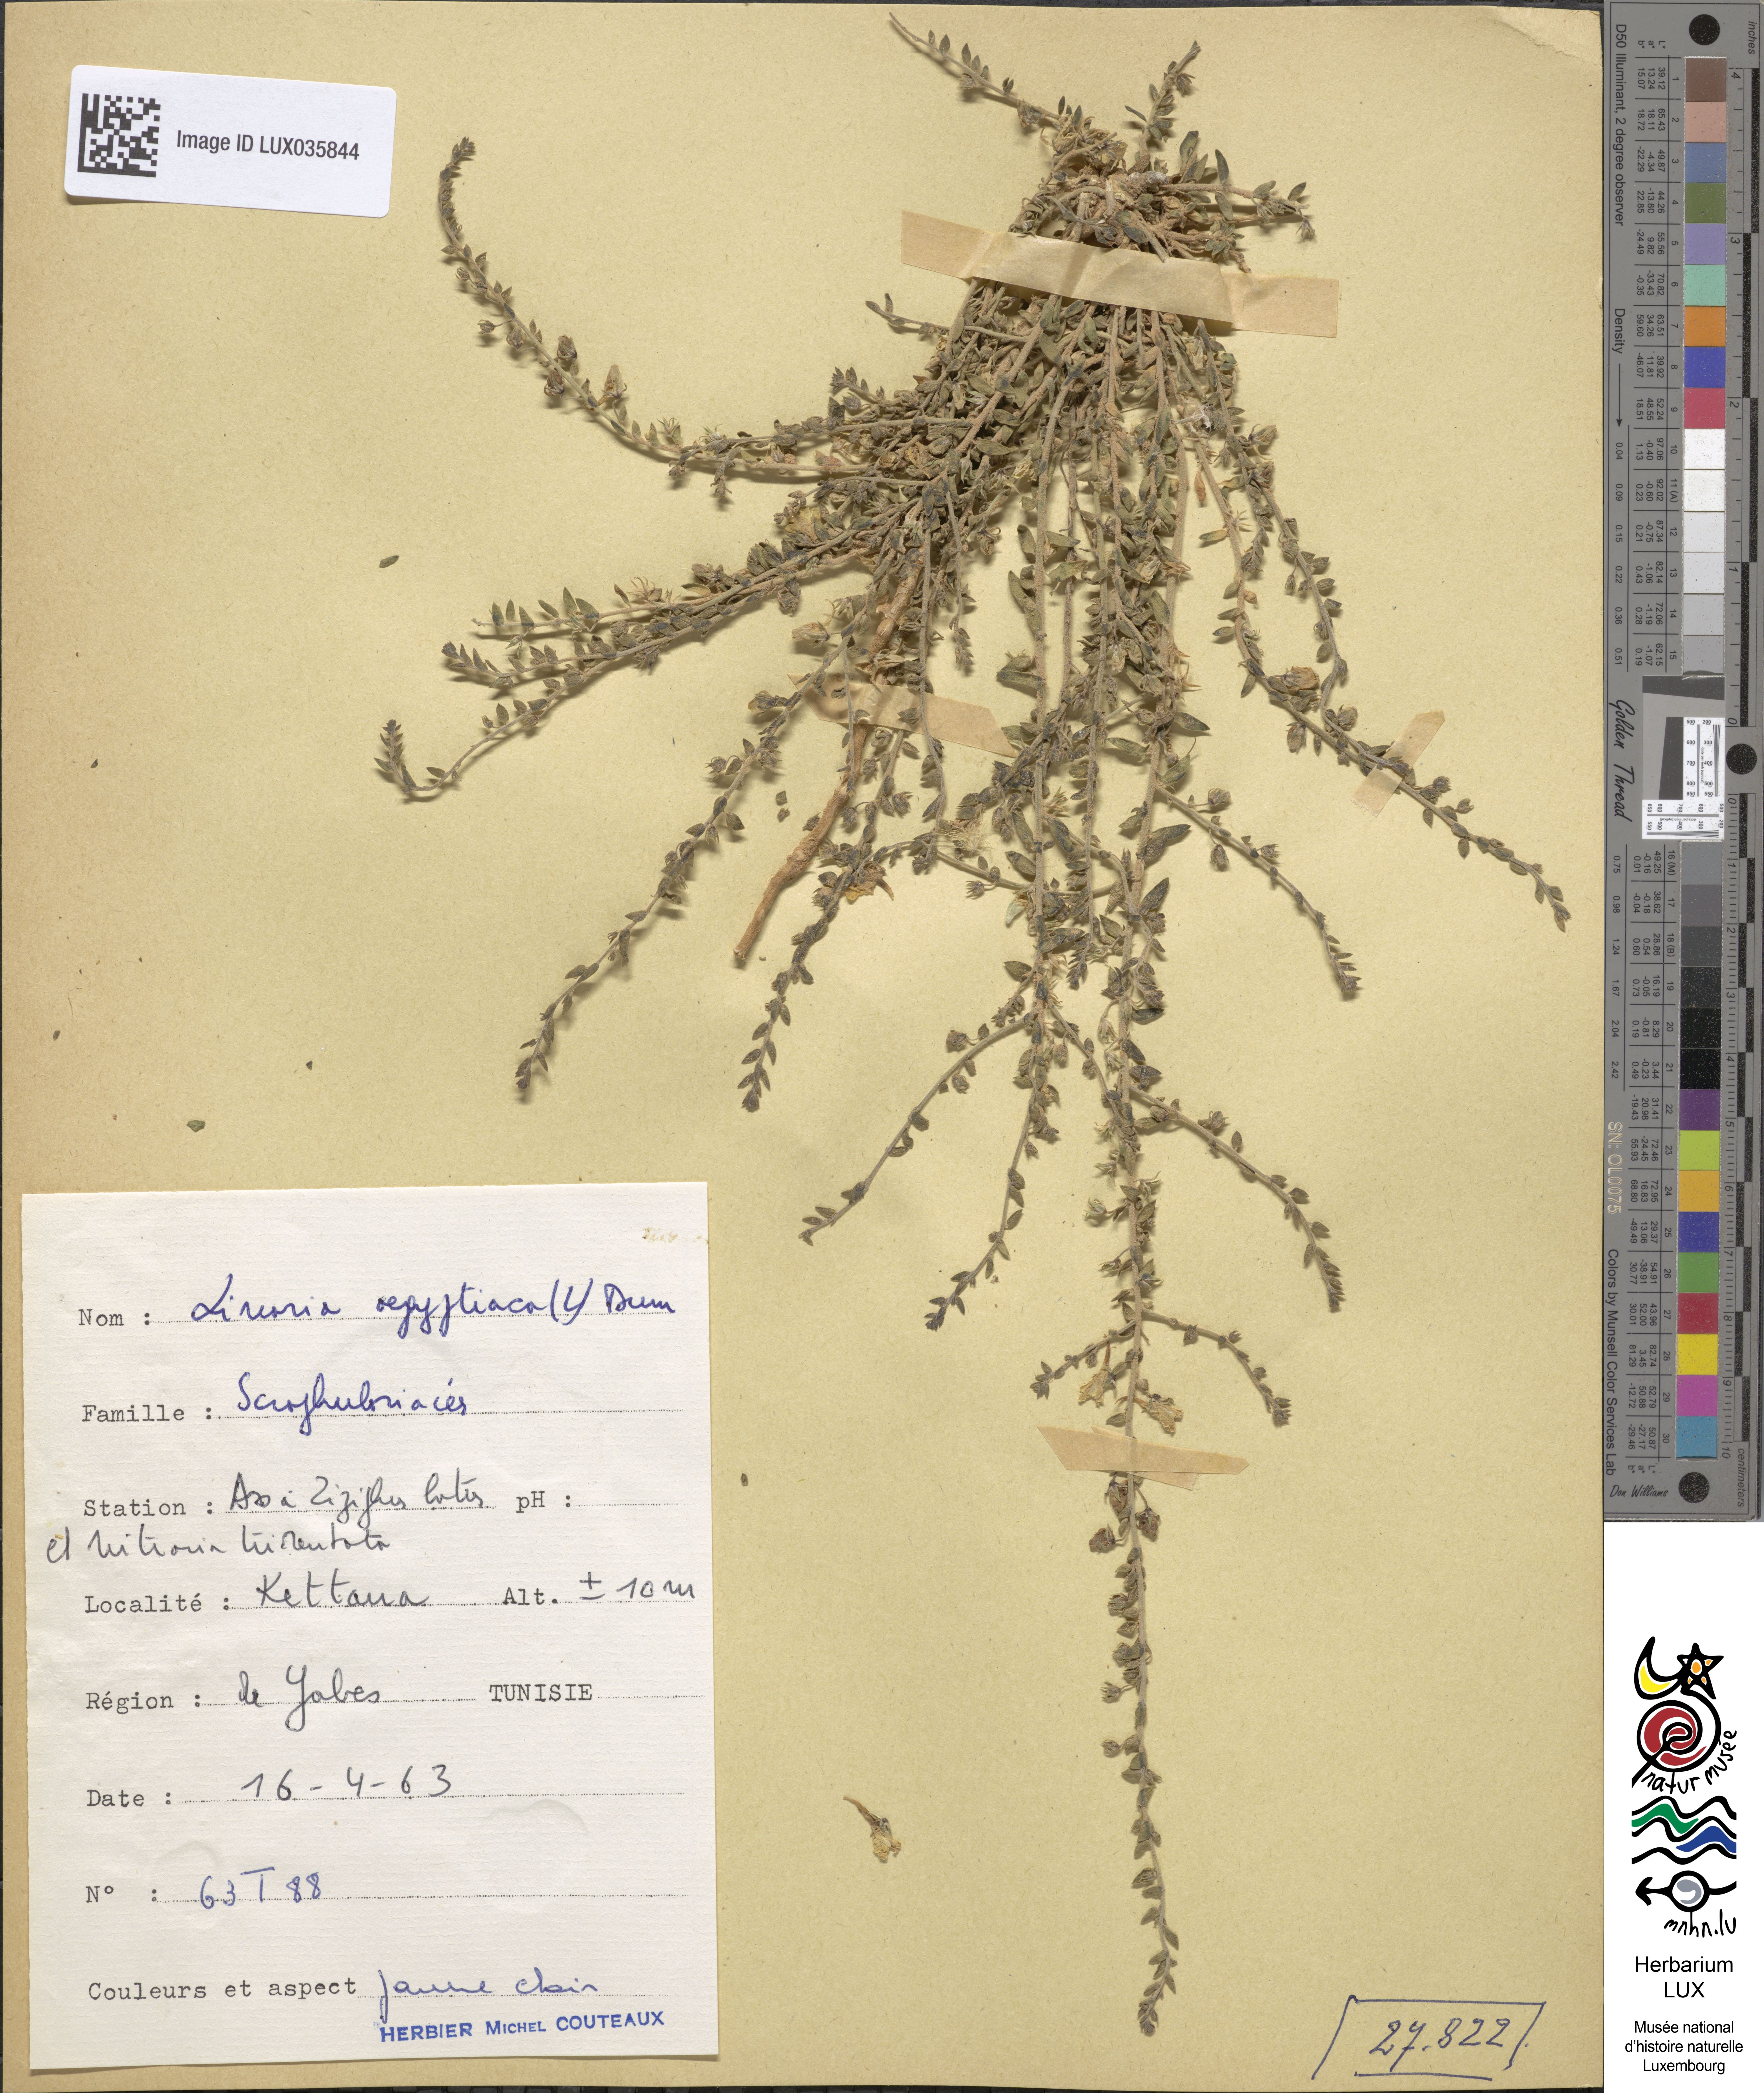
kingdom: Plantae
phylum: Tracheophyta
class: Magnoliopsida
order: Lamiales
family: Plantaginaceae
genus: Kickxia
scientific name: Kickxia aegyptiaca
